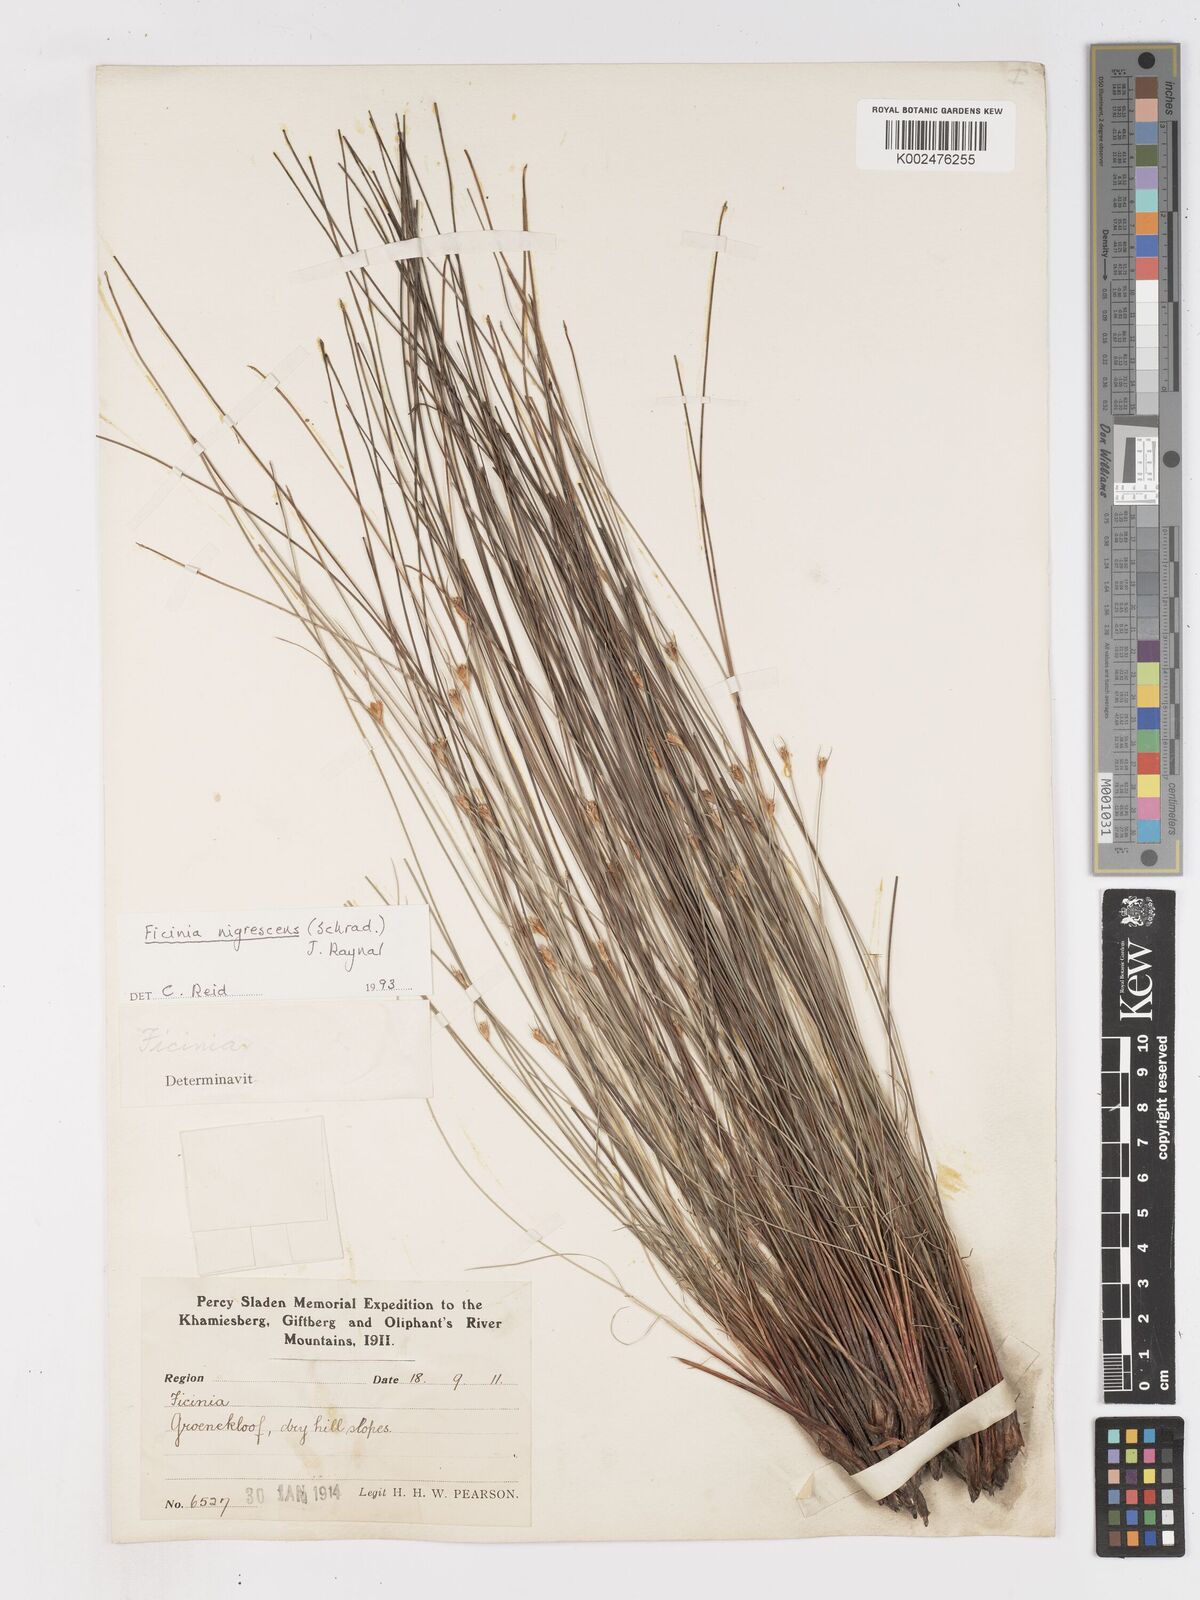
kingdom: Plantae
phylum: Tracheophyta
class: Liliopsida
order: Poales
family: Cyperaceae
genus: Ficinia
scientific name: Ficinia nigrescens
